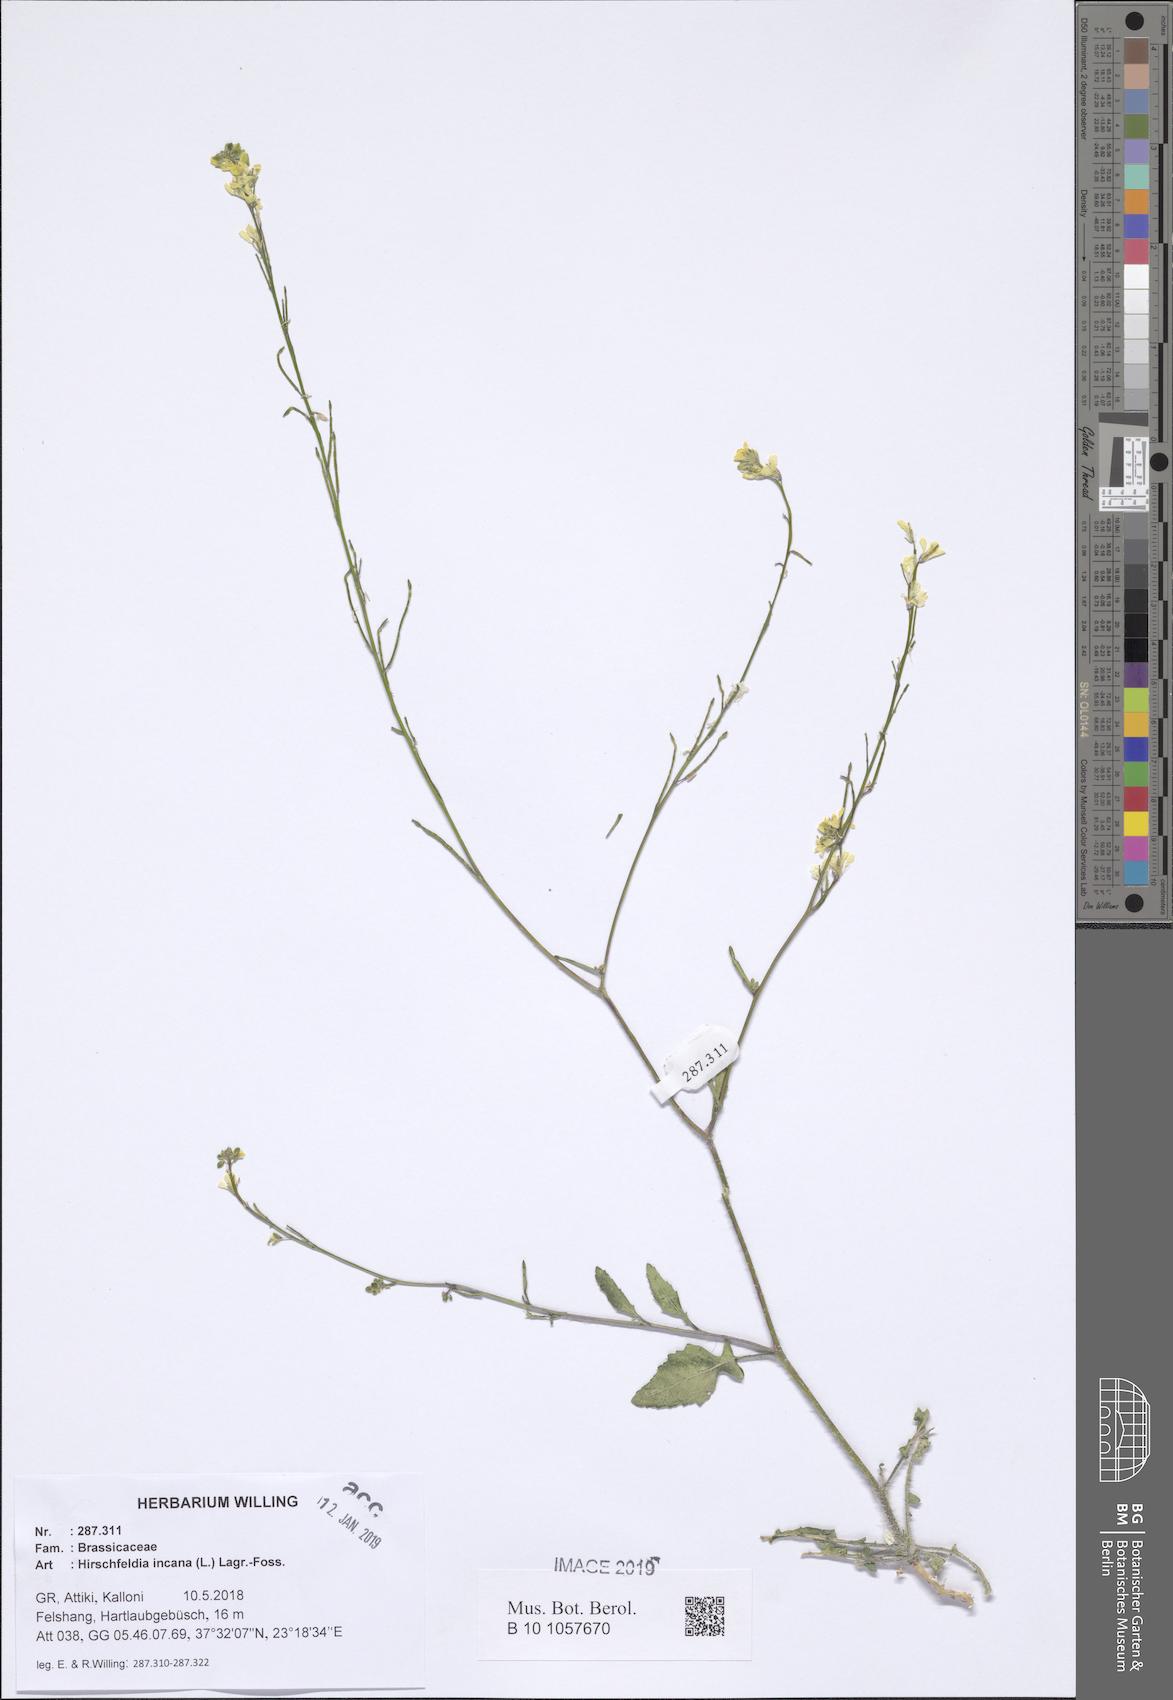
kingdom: Plantae
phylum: Tracheophyta
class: Magnoliopsida
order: Brassicales
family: Brassicaceae
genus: Hirschfeldia
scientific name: Hirschfeldia incana
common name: Hoary mustard
